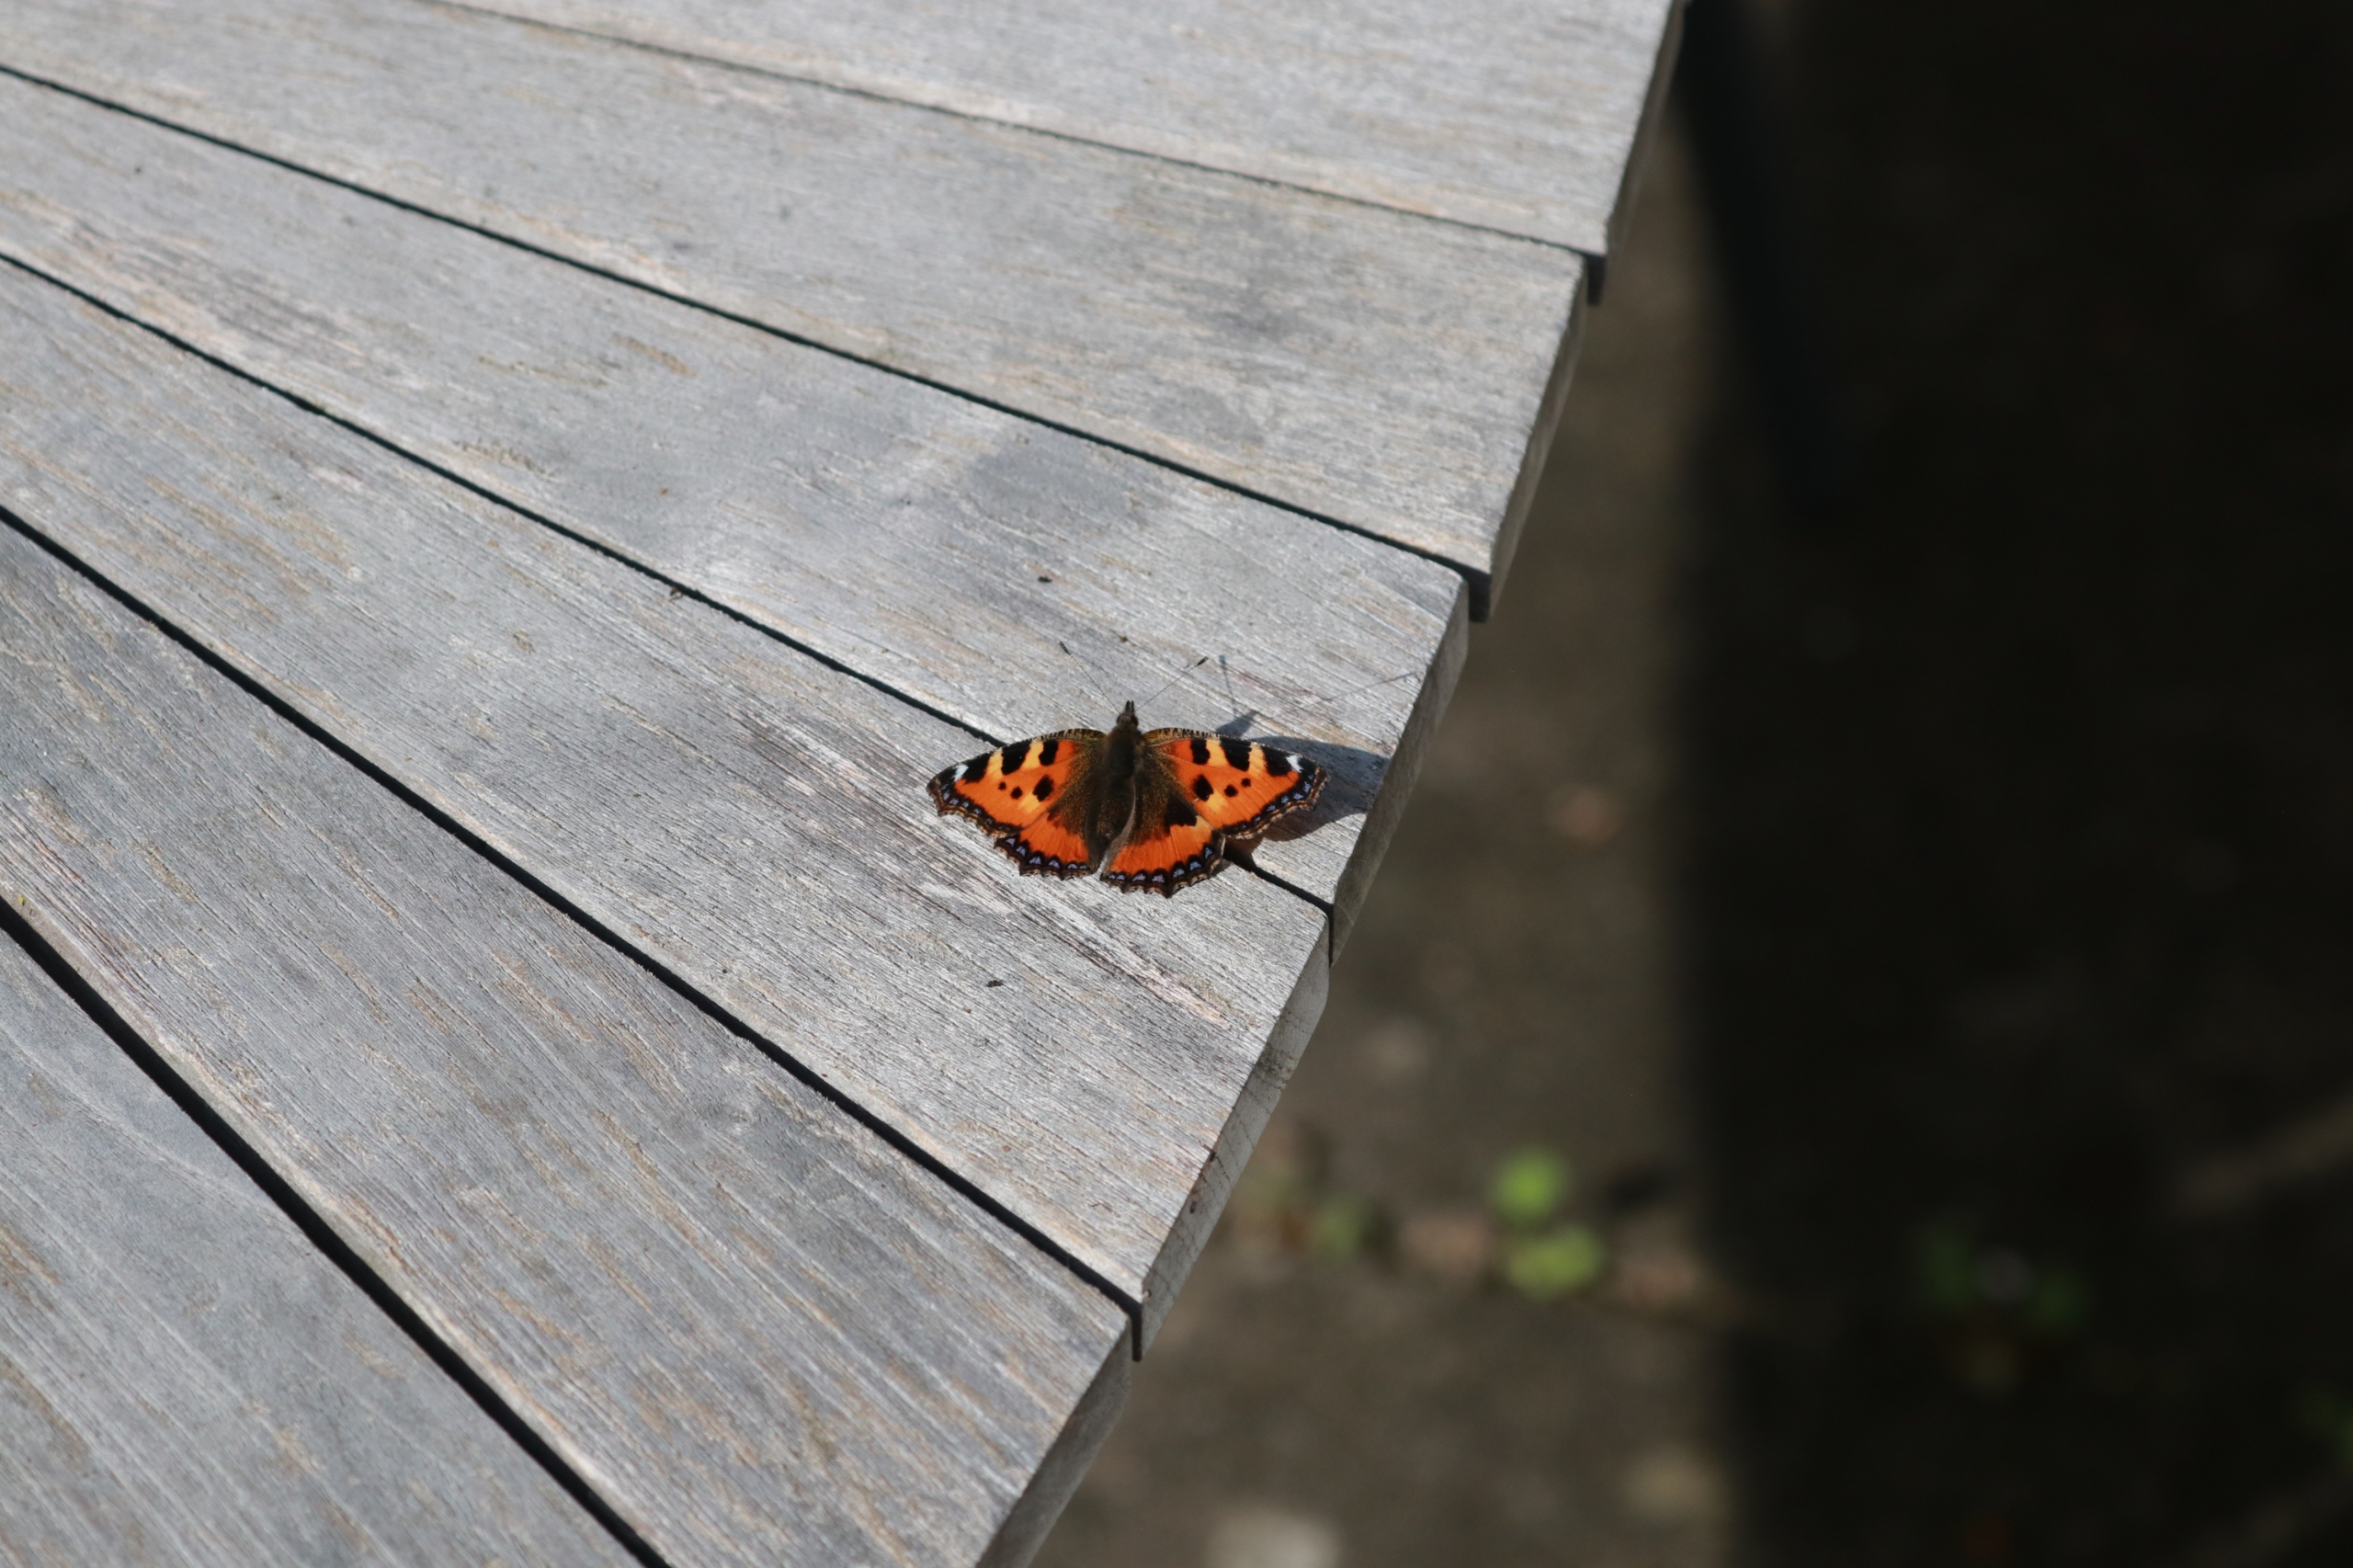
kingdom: Animalia
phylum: Arthropoda
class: Insecta
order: Lepidoptera
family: Nymphalidae
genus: Aglais
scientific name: Aglais urticae
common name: Nældens takvinge
